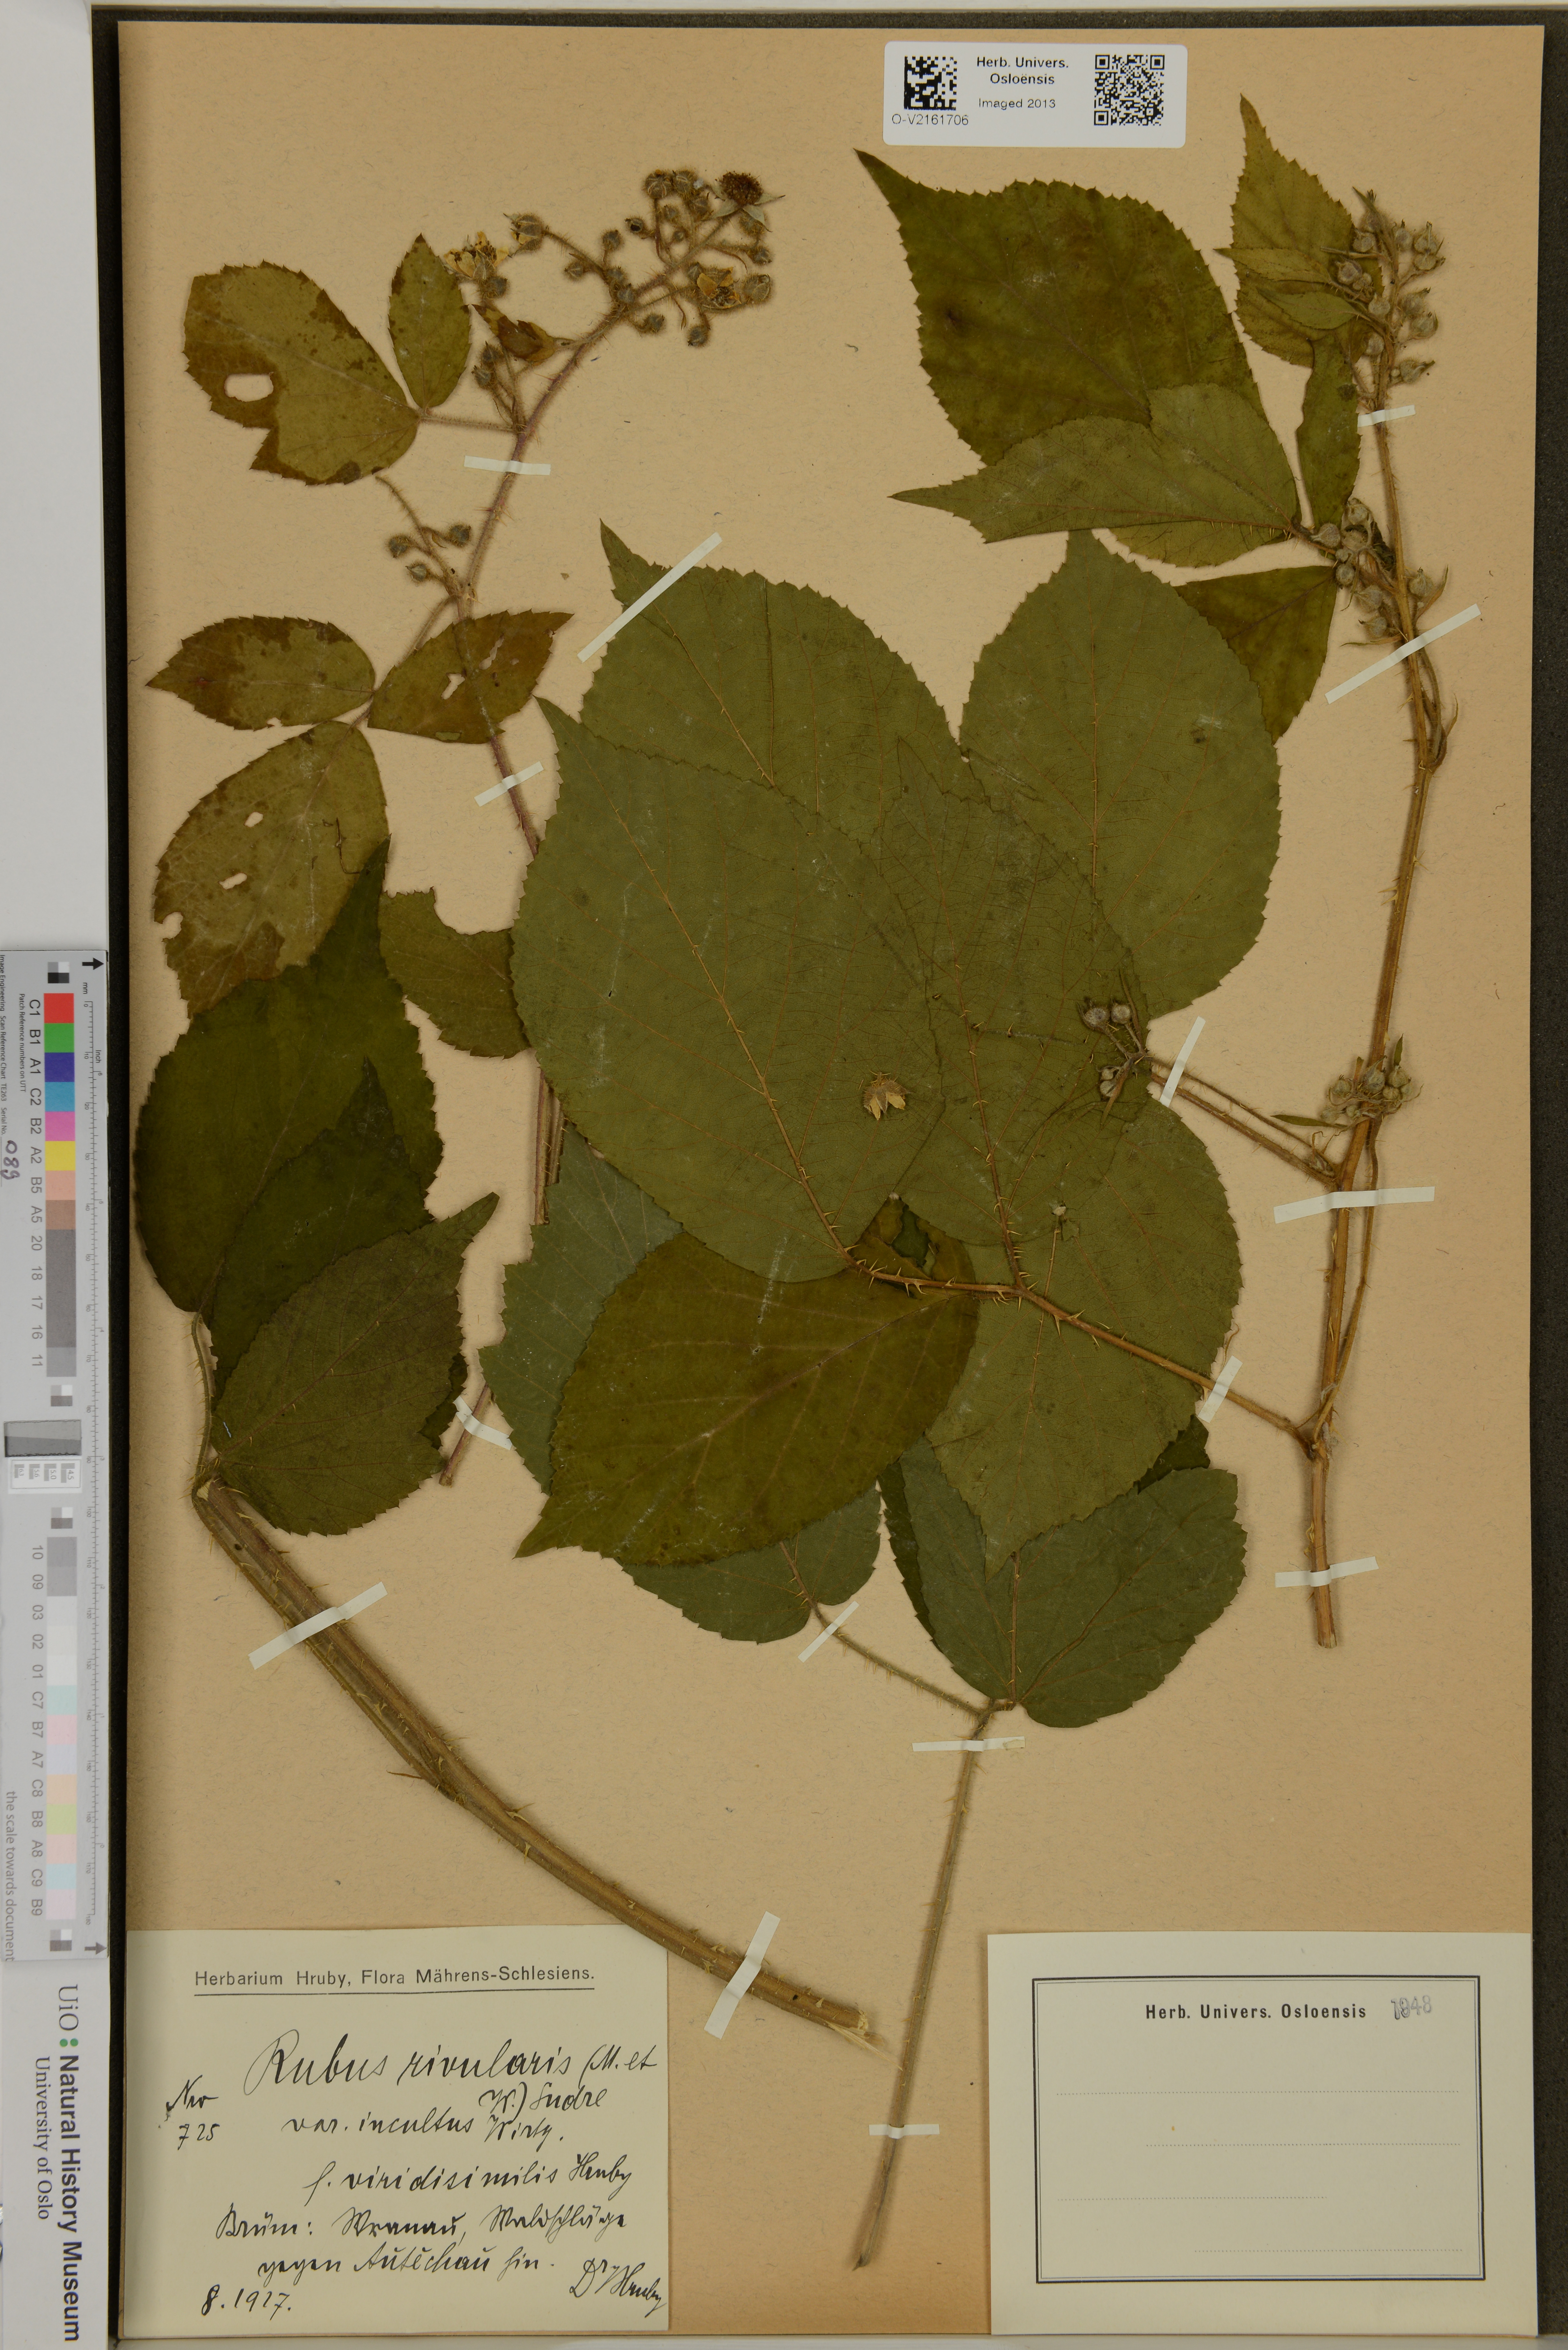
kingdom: Plantae
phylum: Tracheophyta
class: Magnoliopsida
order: Rosales
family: Rosaceae
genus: Rubus
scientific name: Rubus rivularis
